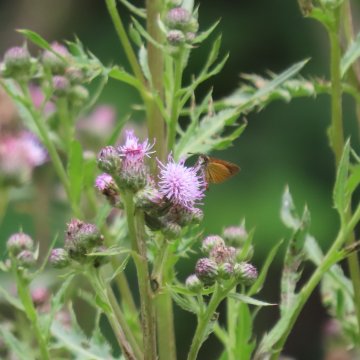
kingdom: Animalia
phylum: Arthropoda
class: Insecta
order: Lepidoptera
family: Hesperiidae
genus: Ancyloxypha
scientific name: Ancyloxypha numitor
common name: Least Skipper
